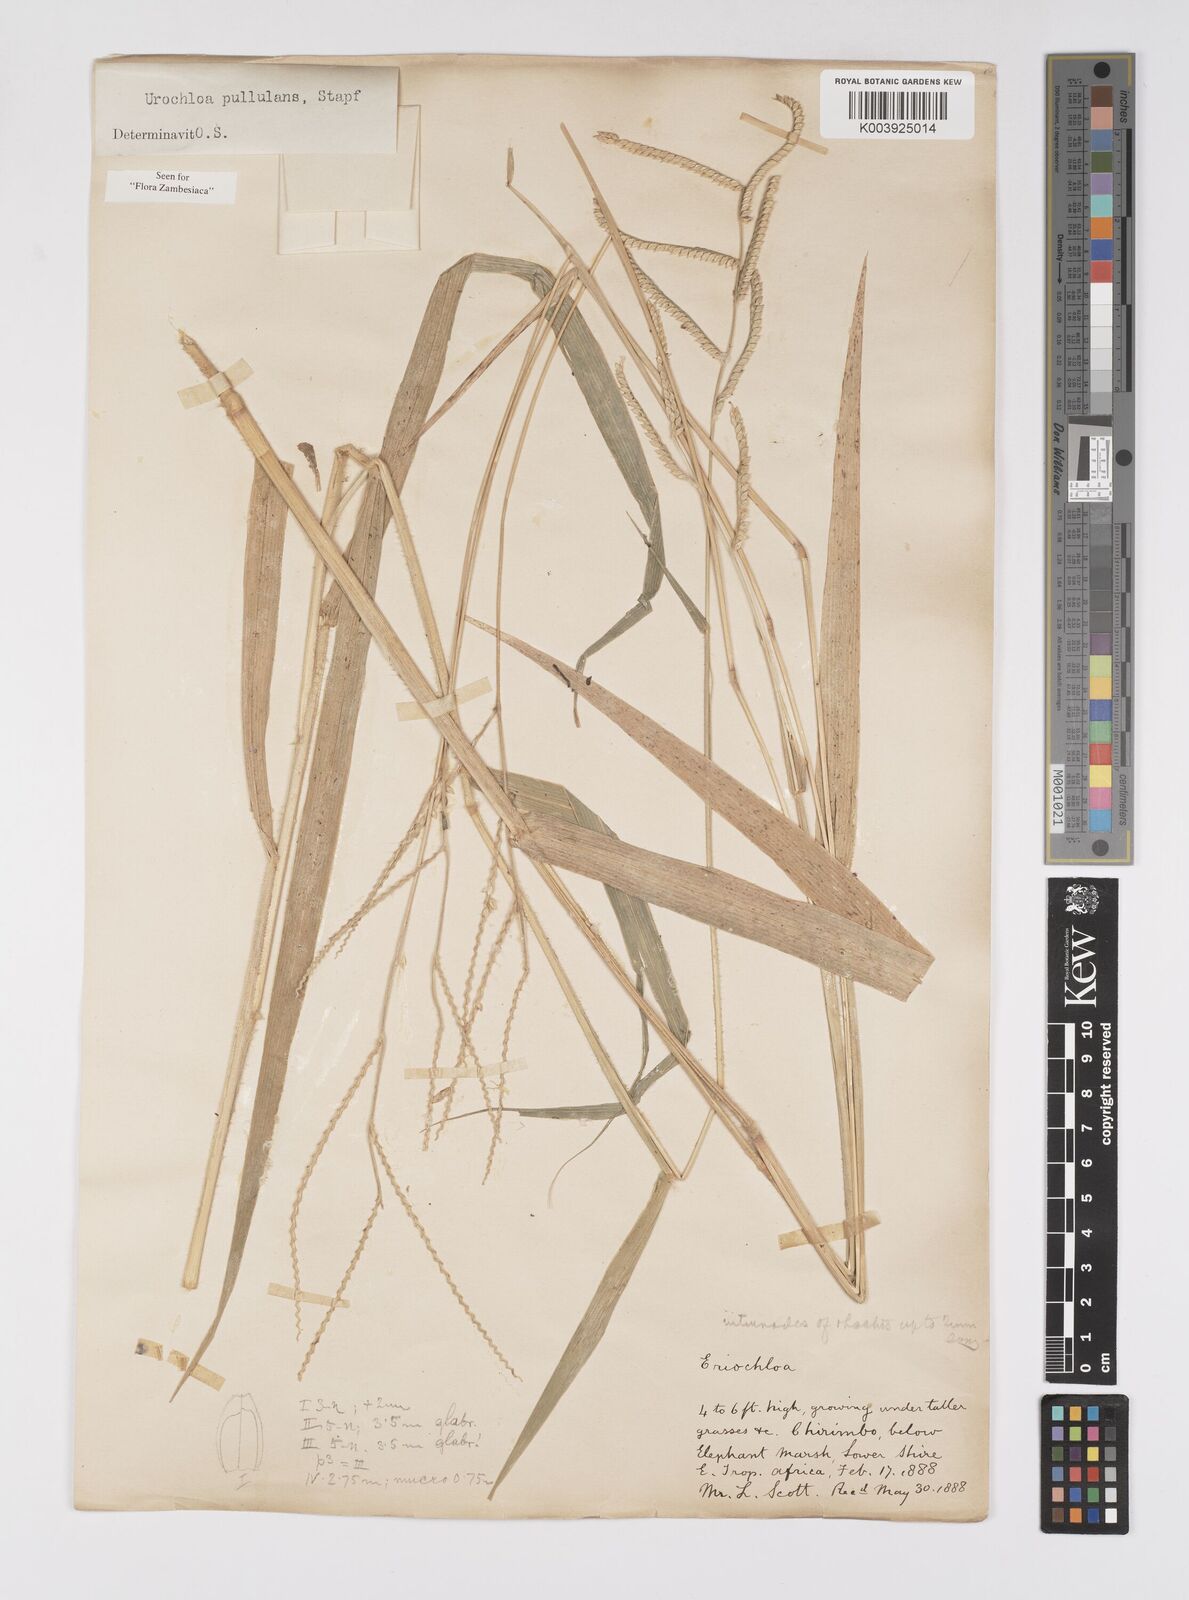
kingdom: Plantae
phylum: Tracheophyta
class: Liliopsida
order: Poales
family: Poaceae
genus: Urochloa
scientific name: Urochloa trichopus
